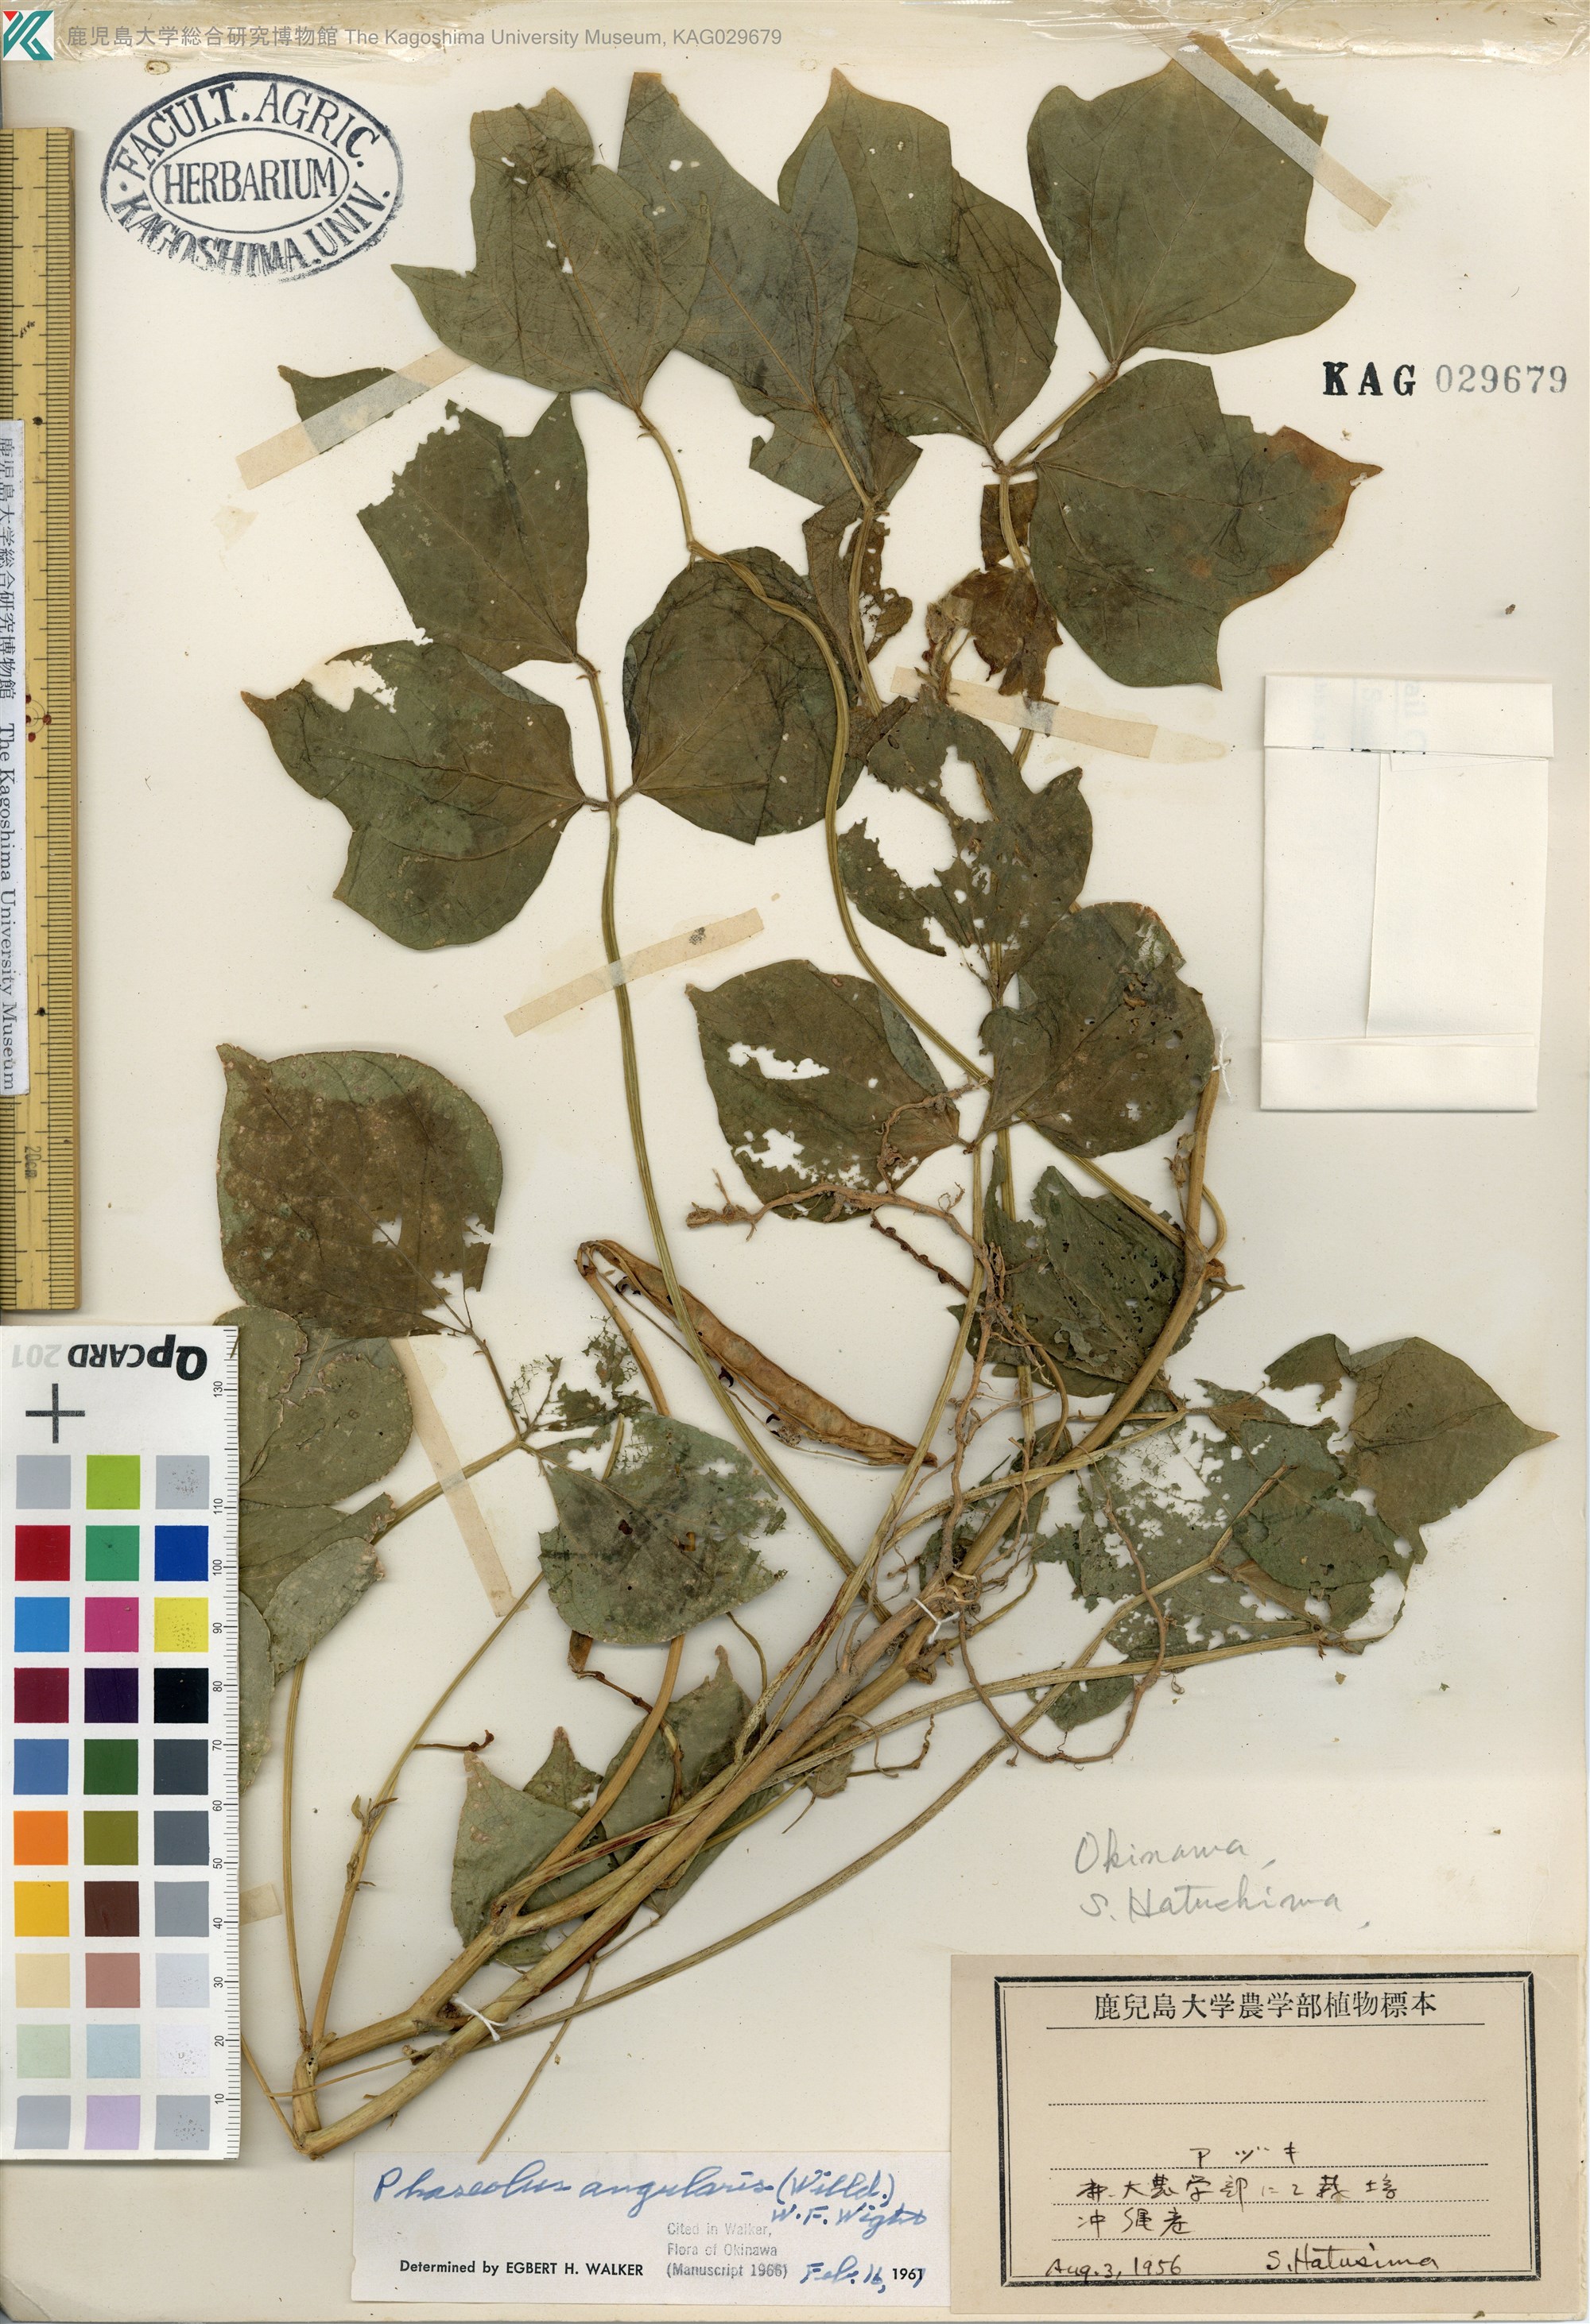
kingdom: Plantae
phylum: Tracheophyta
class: Magnoliopsida
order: Fabales
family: Fabaceae
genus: Vigna
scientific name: Vigna angularis
